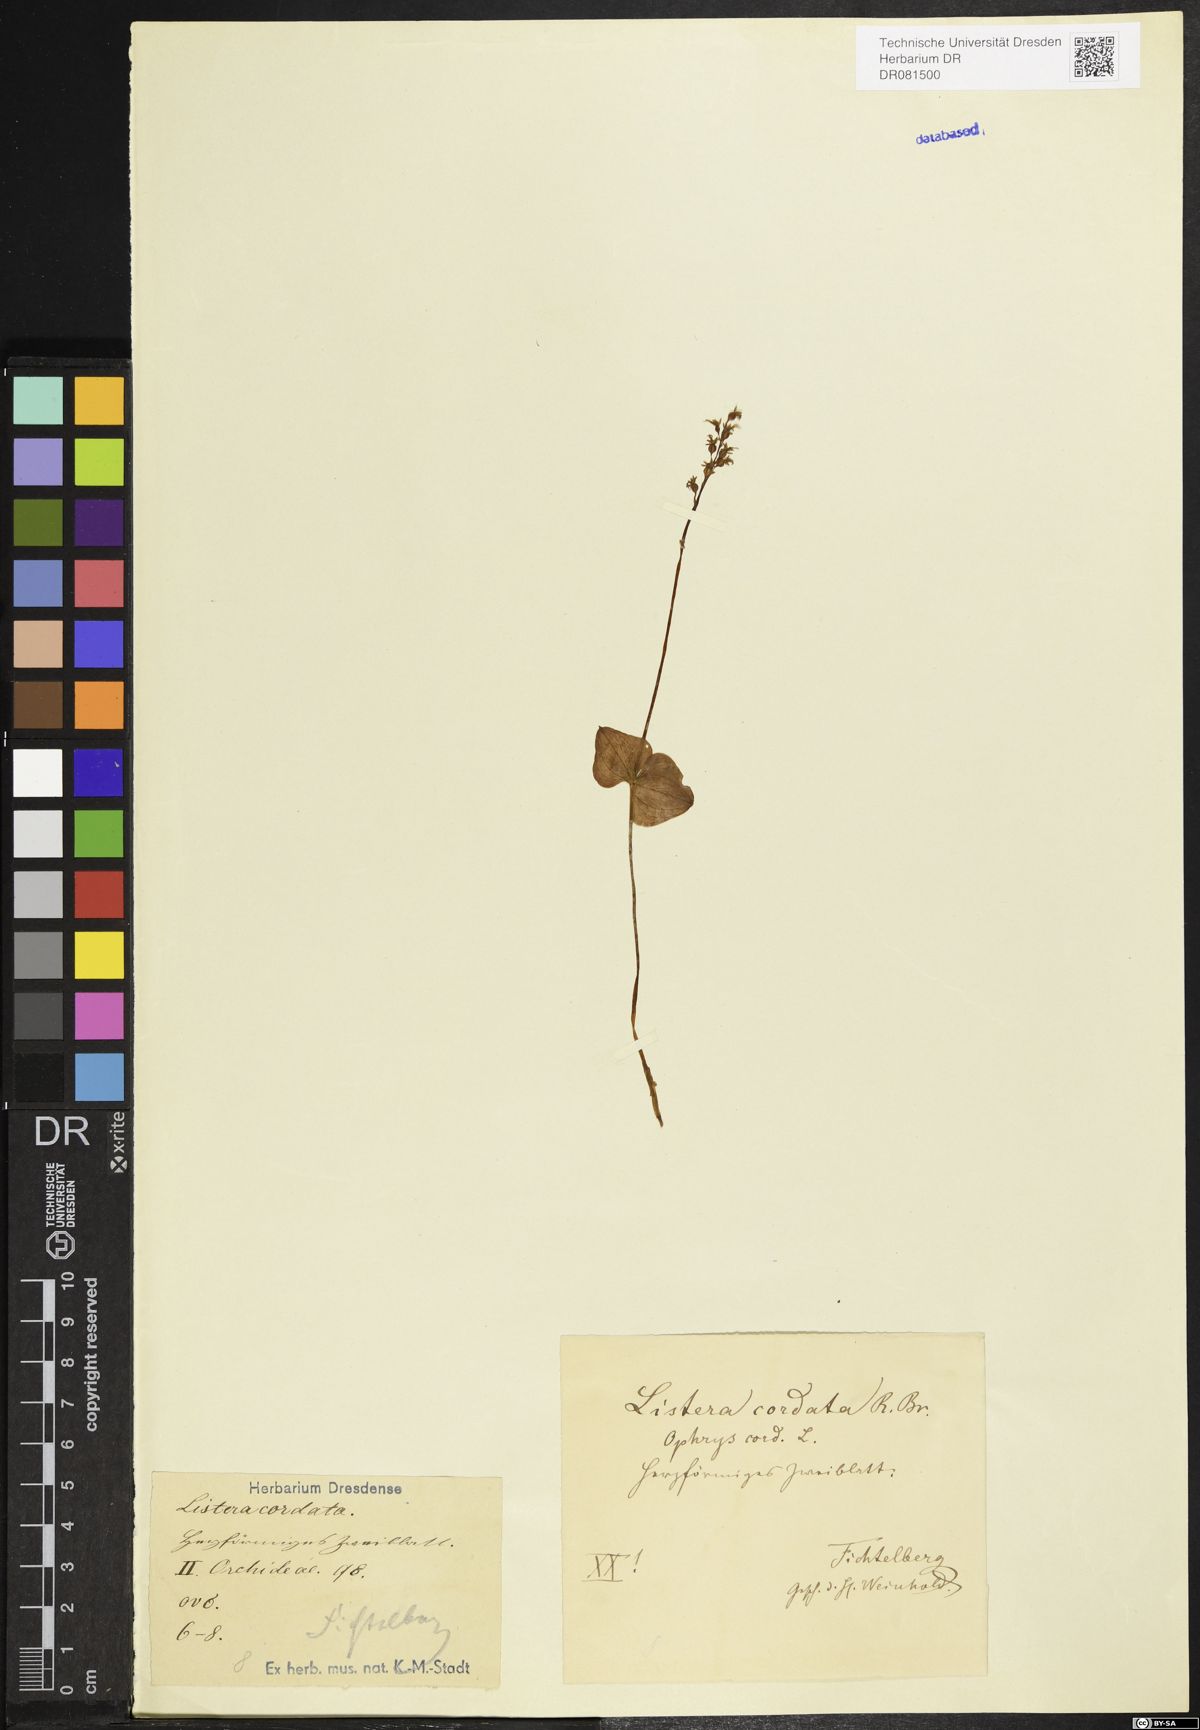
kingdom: Plantae
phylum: Tracheophyta
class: Liliopsida
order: Asparagales
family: Orchidaceae
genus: Neottia
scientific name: Neottia cordata
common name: Lesser twayblade
